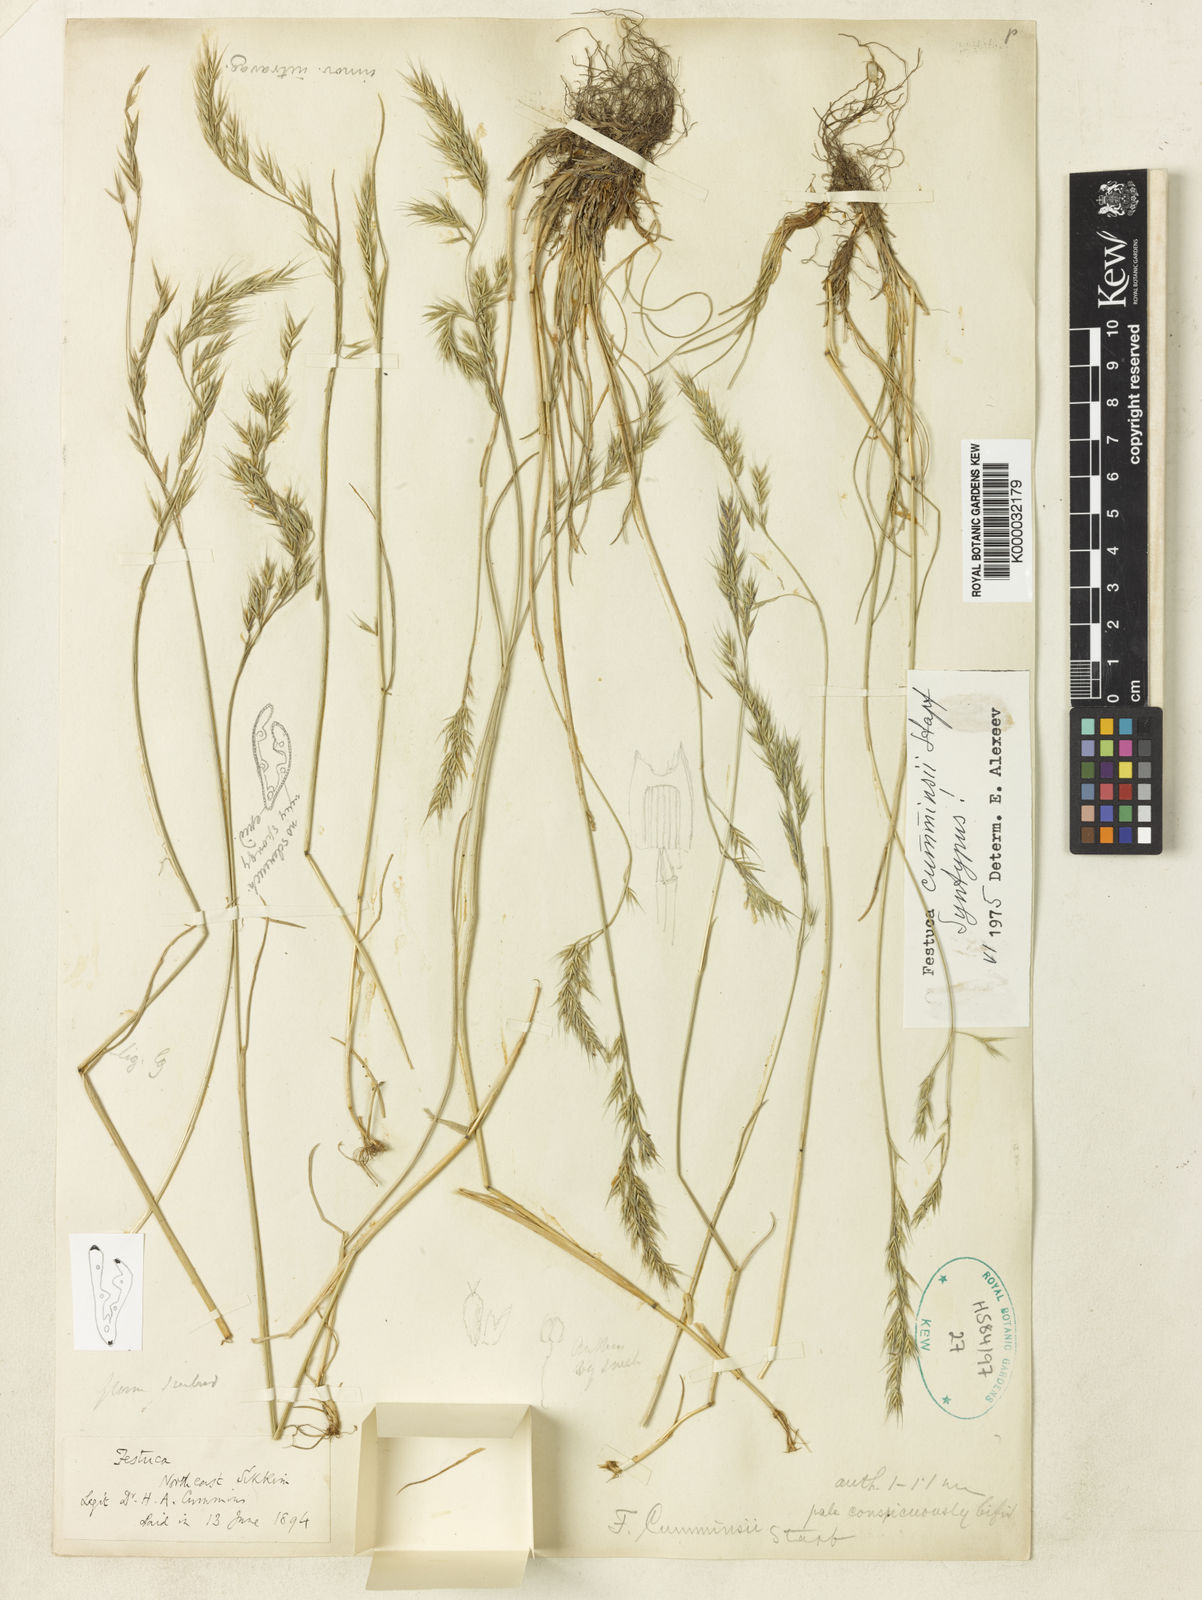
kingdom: Plantae
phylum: Tracheophyta
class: Liliopsida
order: Poales
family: Poaceae
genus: Festuca
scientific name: Festuca cumminsii
